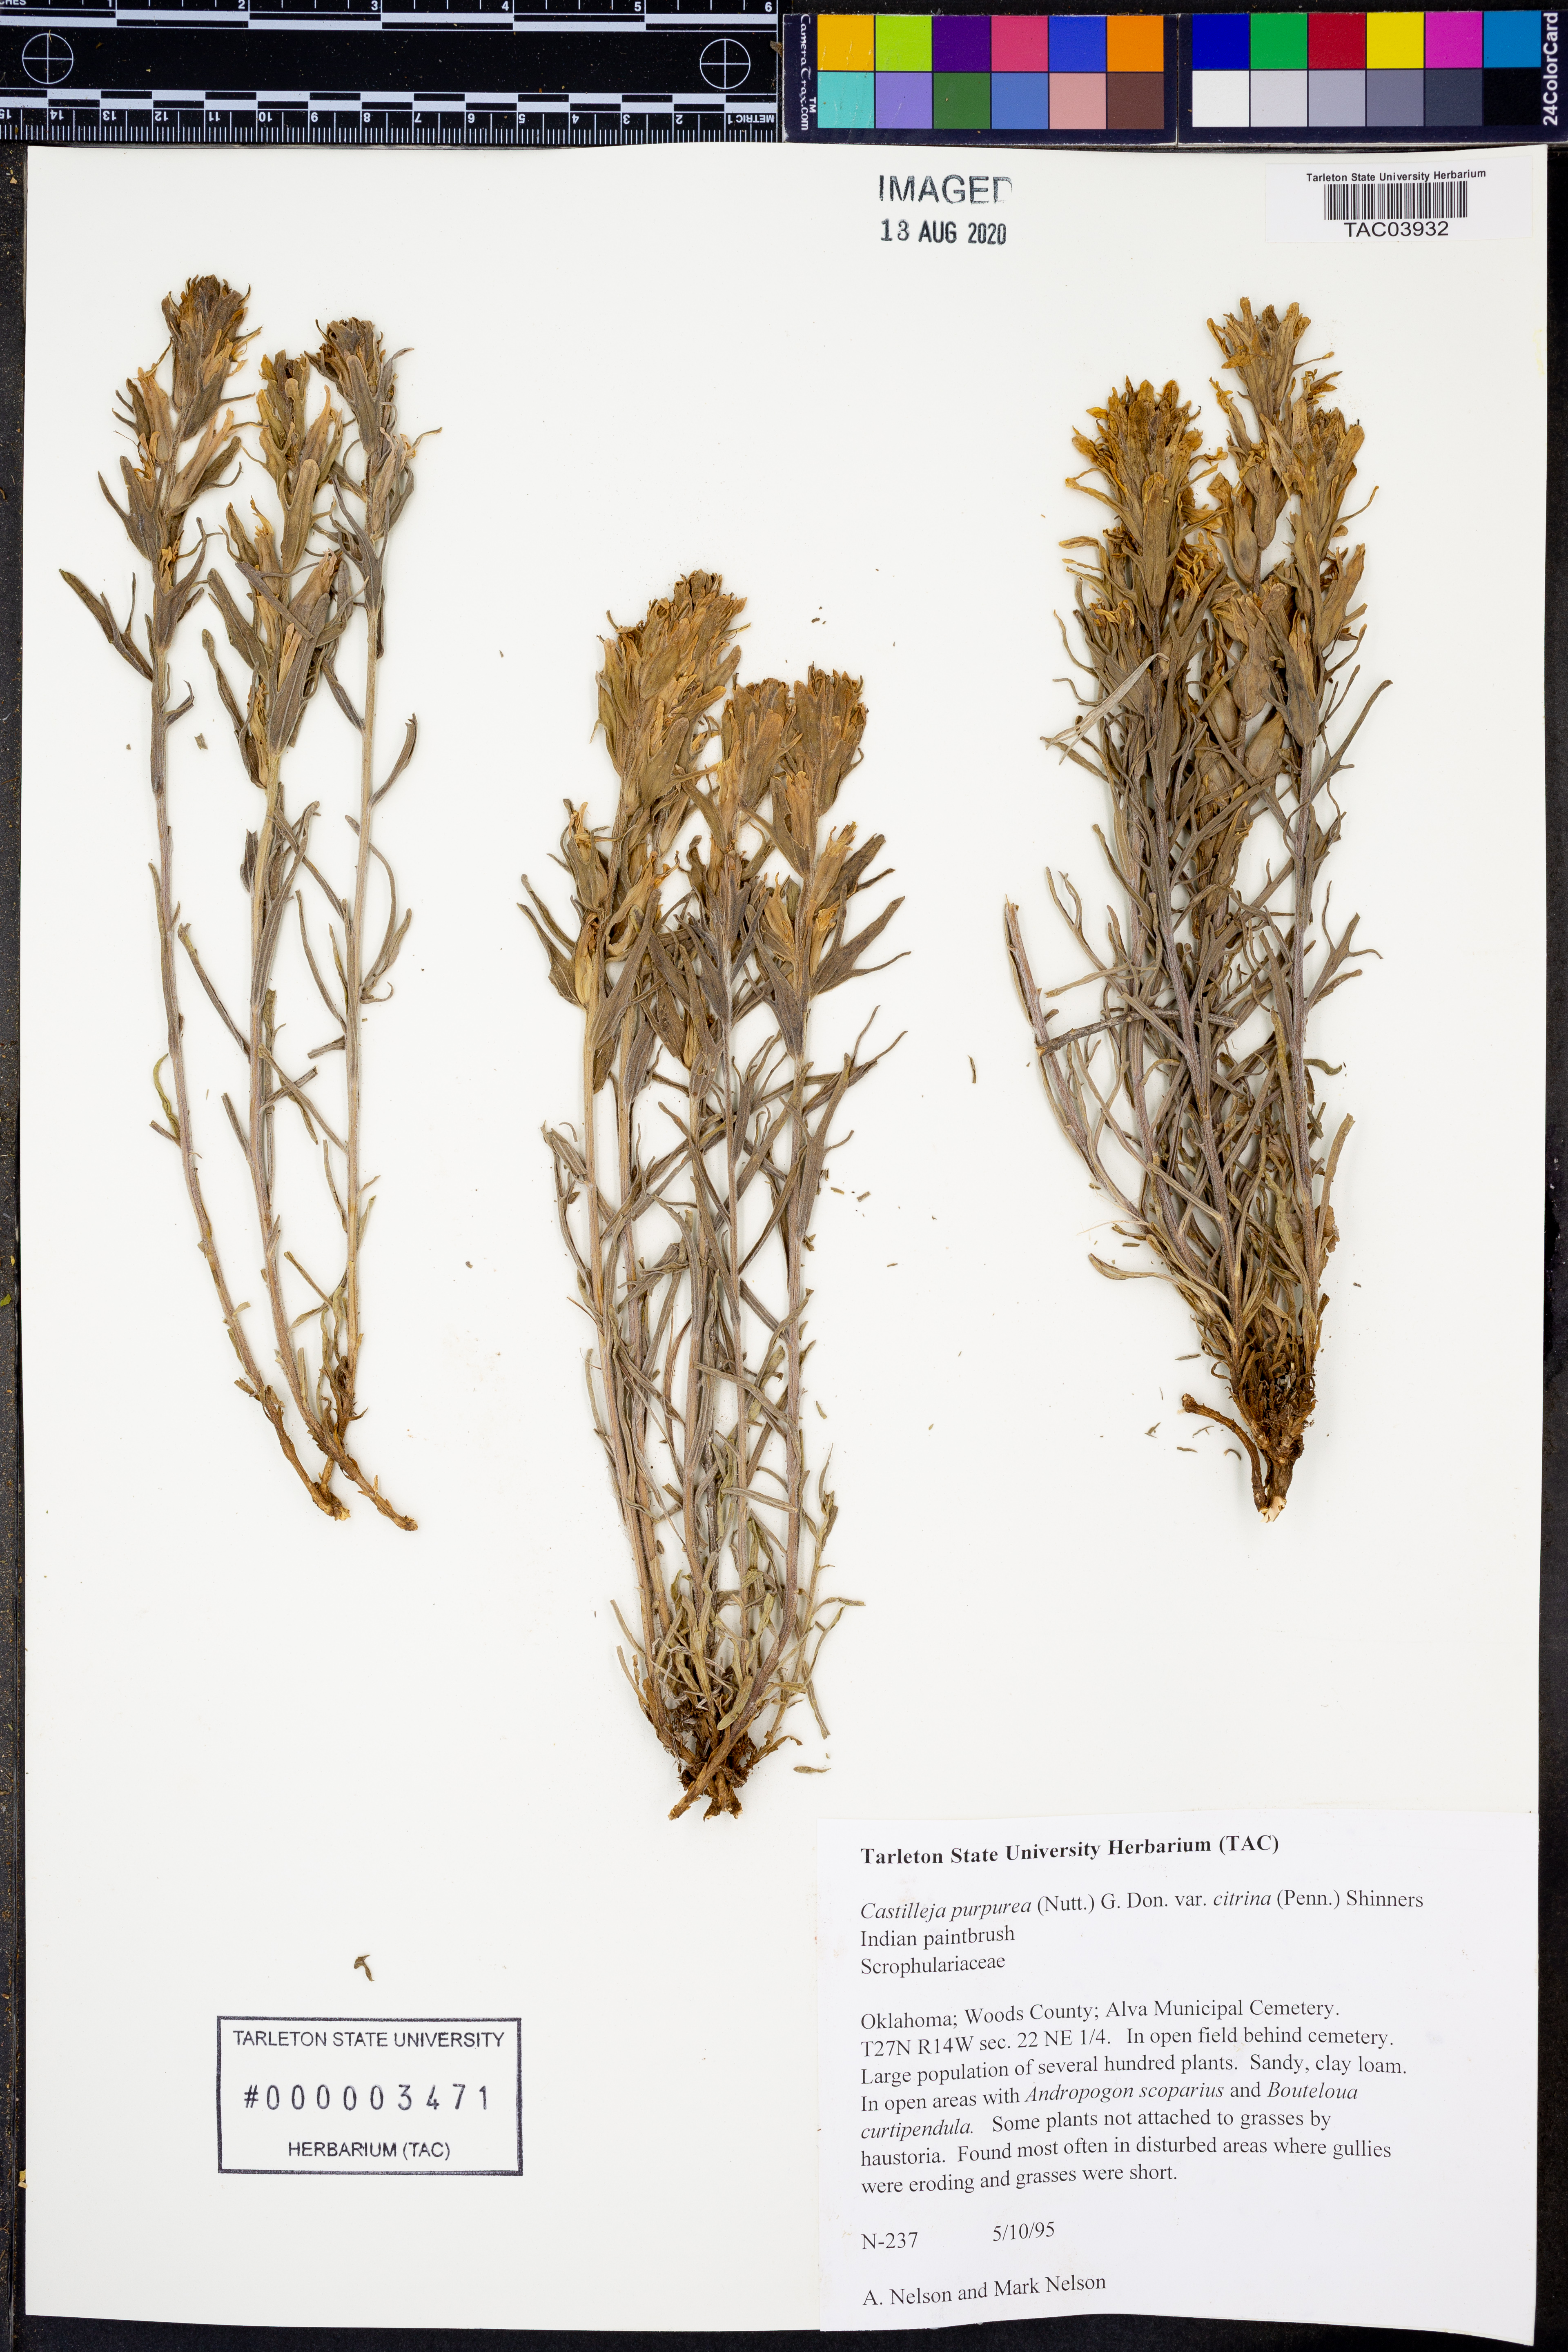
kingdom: Plantae
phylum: Tracheophyta
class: Magnoliopsida
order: Lamiales
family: Orobanchaceae
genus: Castilleja
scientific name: Castilleja citrina
